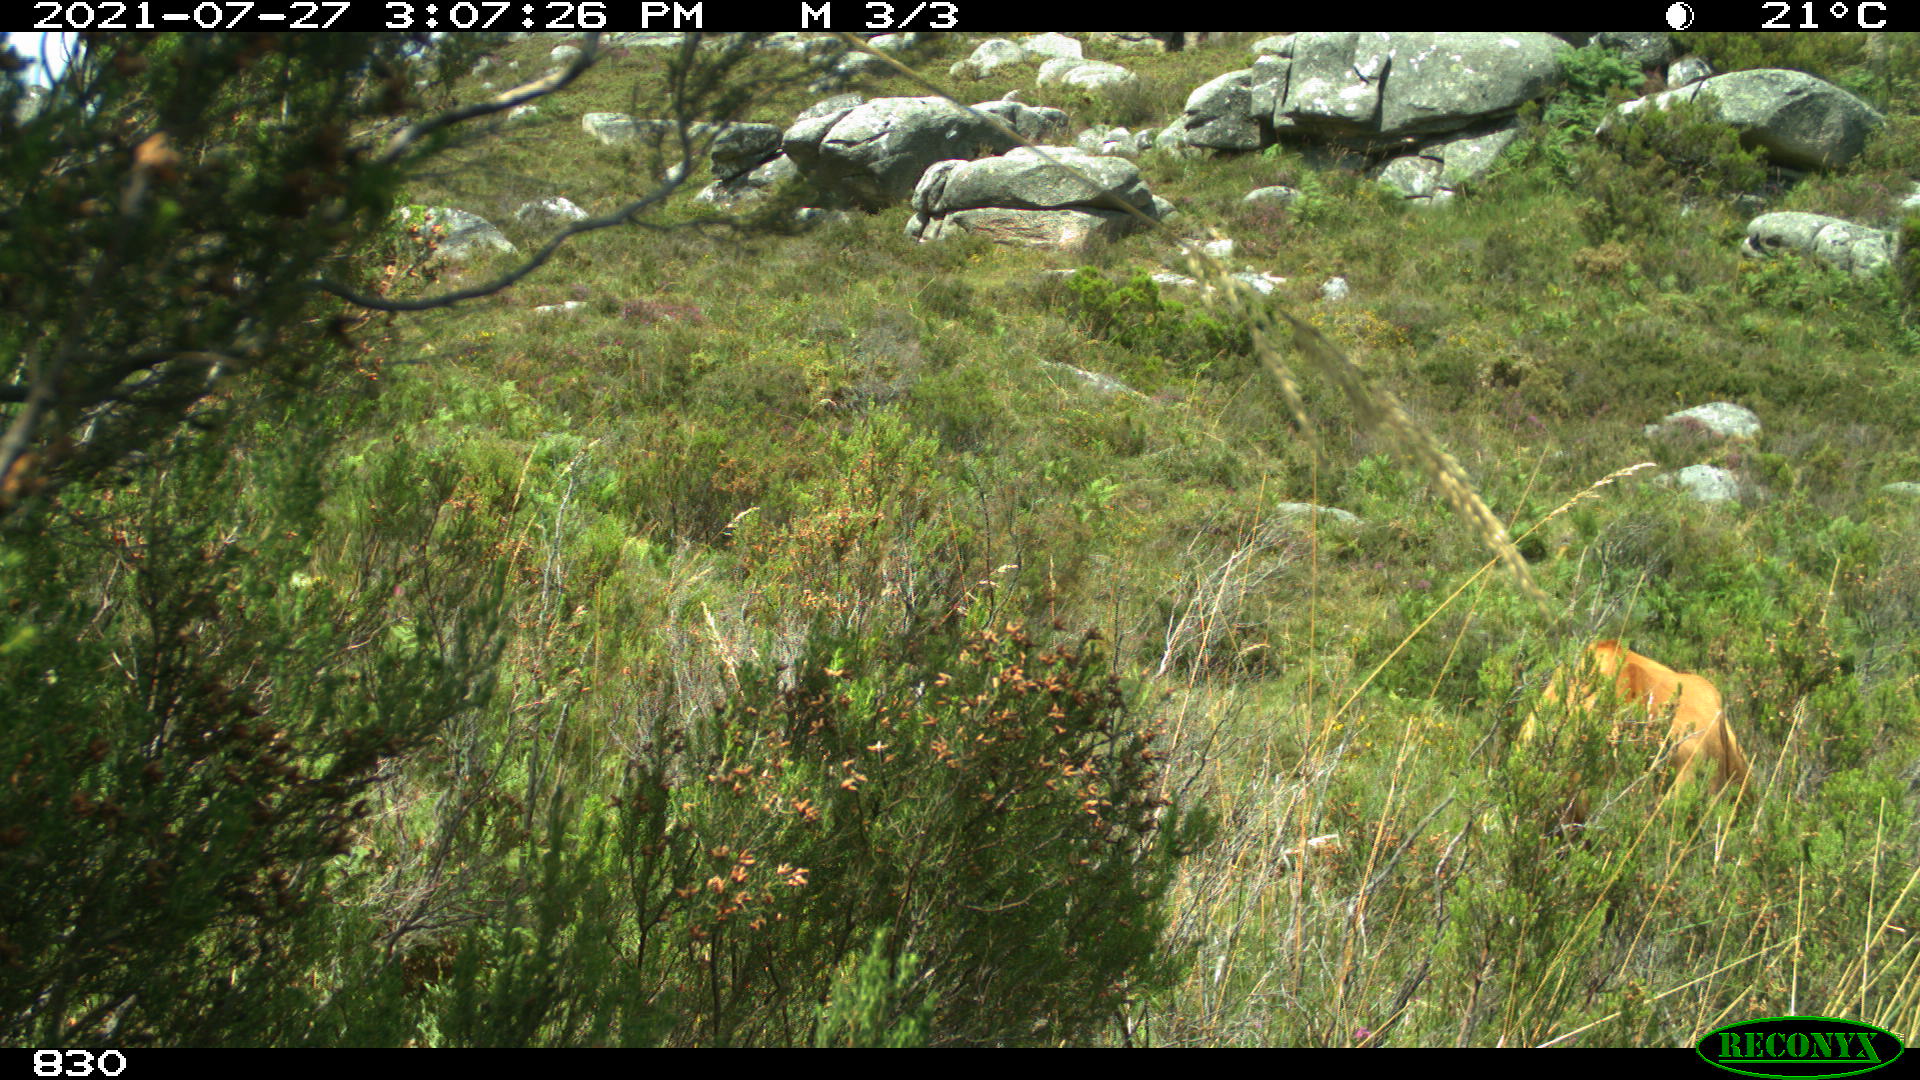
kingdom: Animalia
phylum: Chordata
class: Mammalia
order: Artiodactyla
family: Bovidae
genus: Bos
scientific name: Bos taurus
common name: Domesticated cattle
